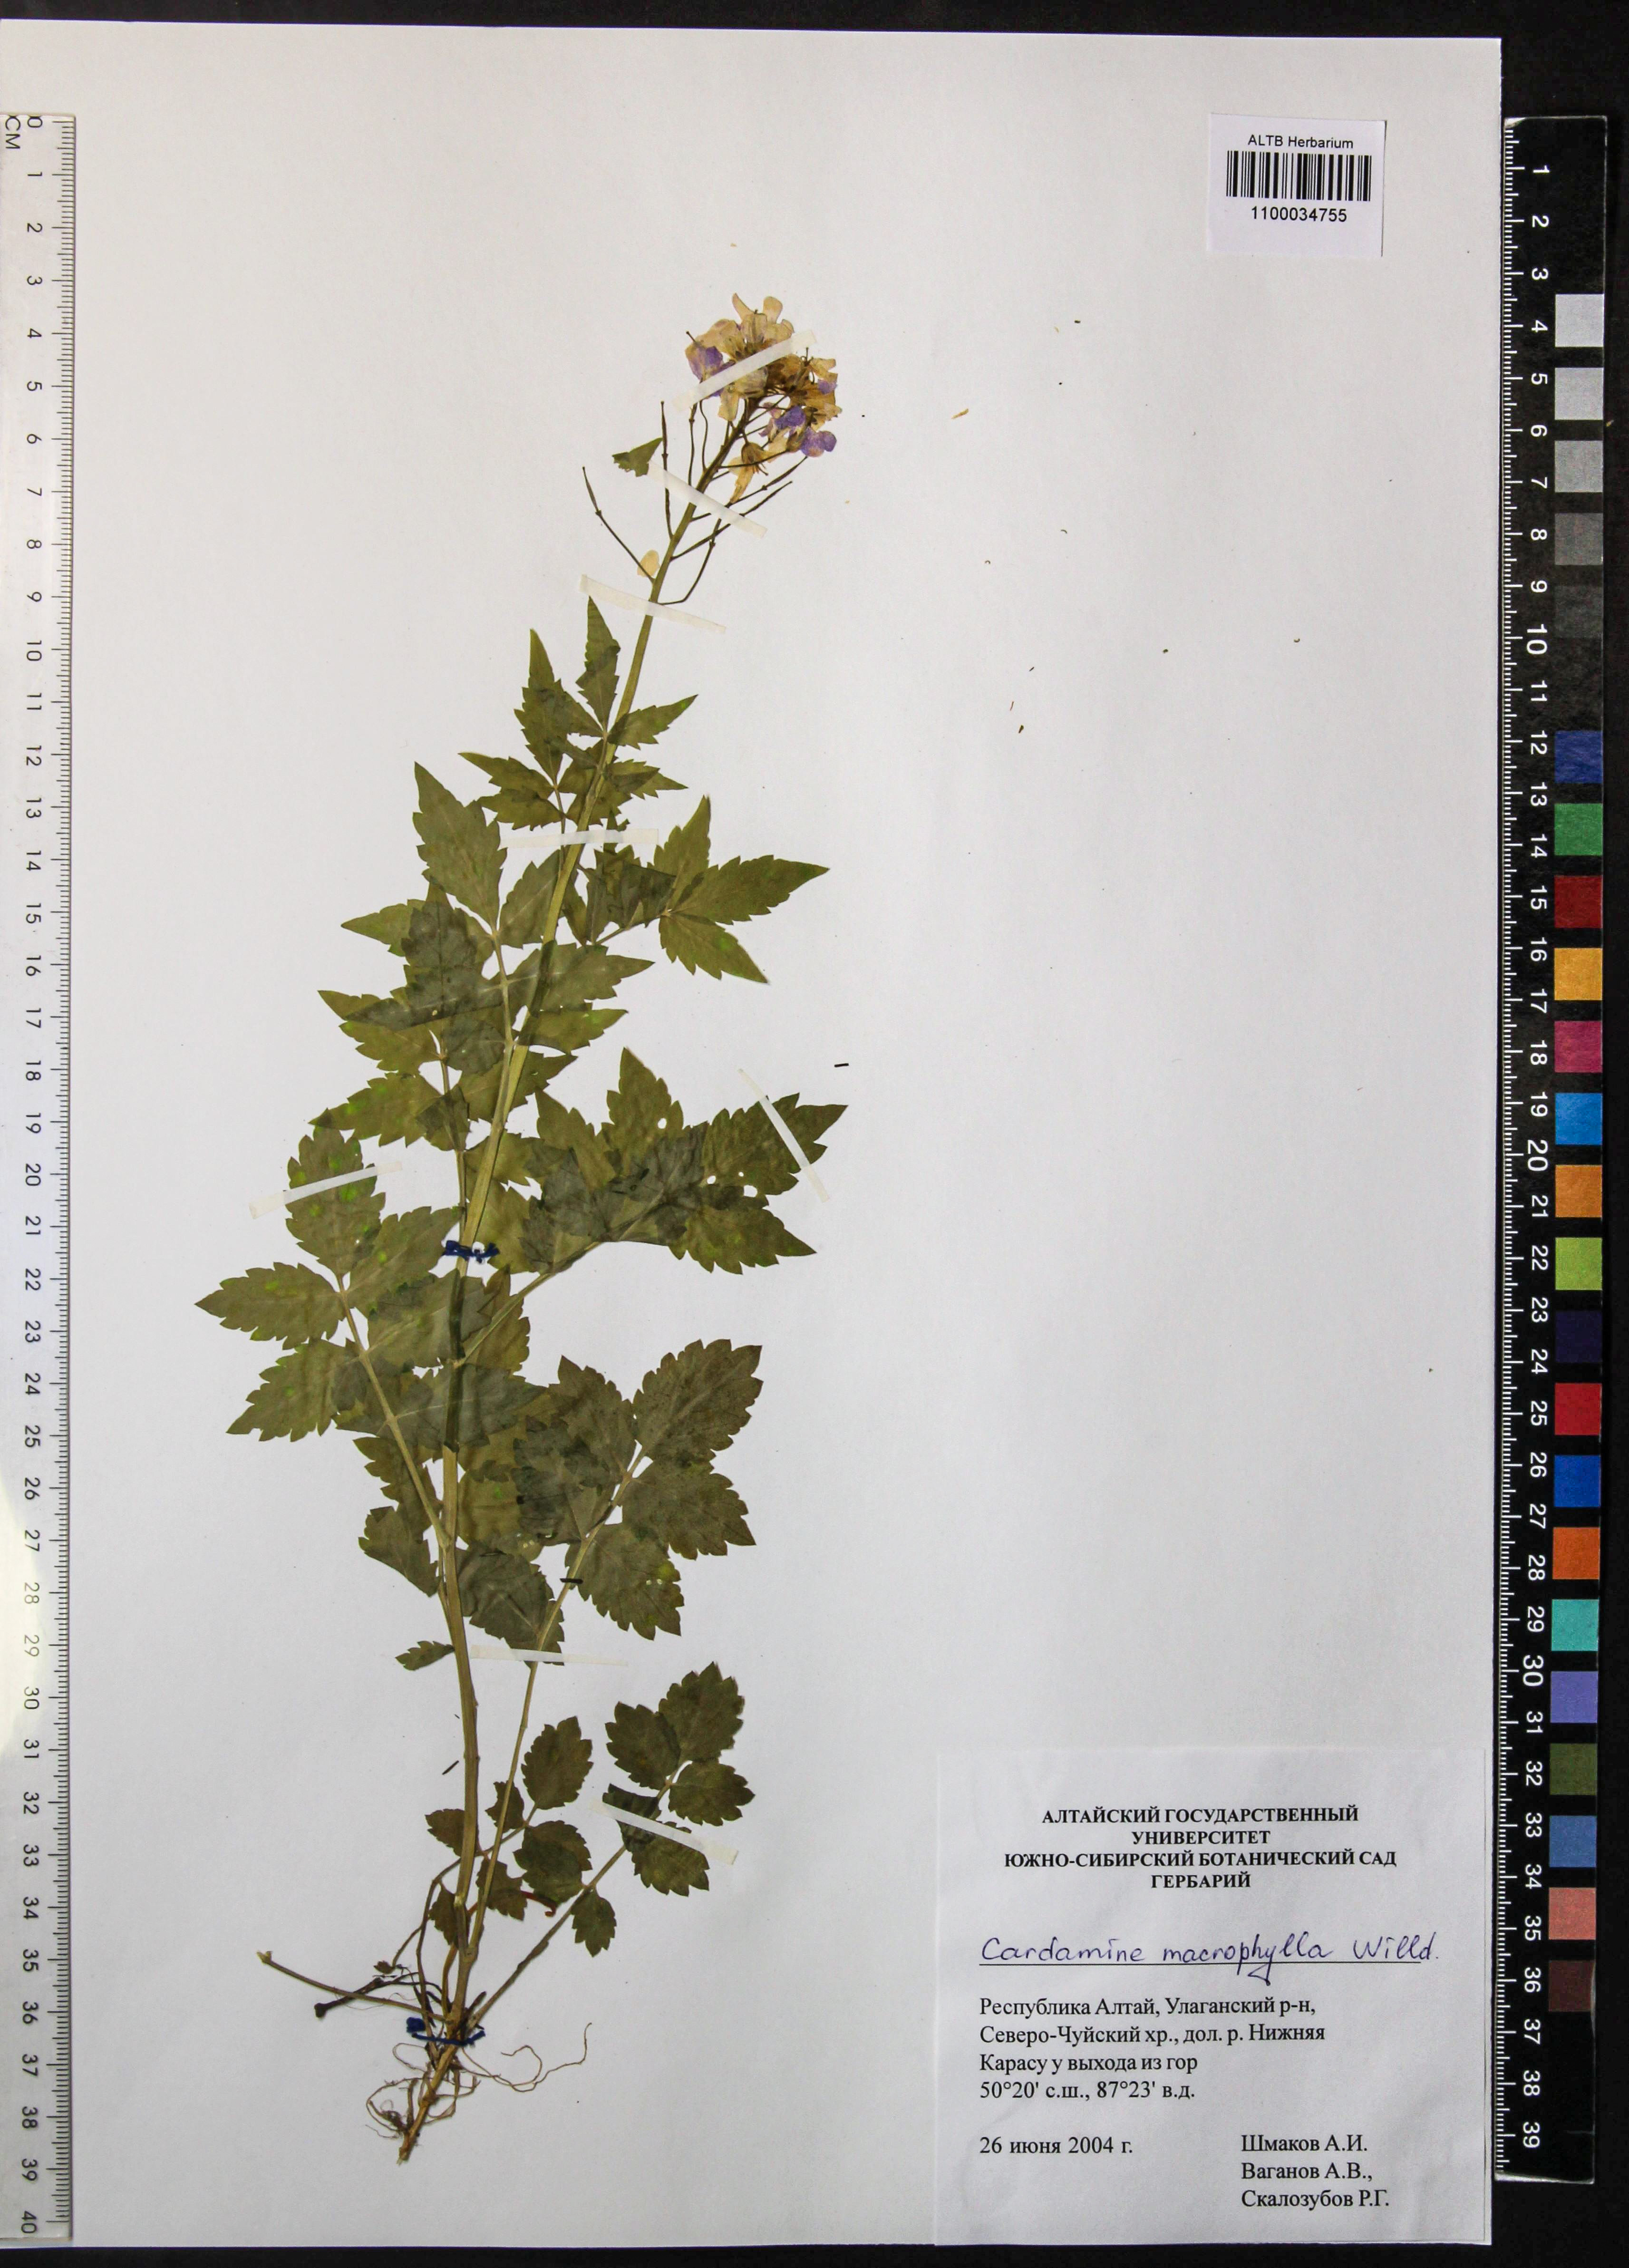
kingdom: Plantae
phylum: Tracheophyta
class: Magnoliopsida
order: Brassicales
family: Brassicaceae
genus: Cardamine
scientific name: Cardamine macrophylla
